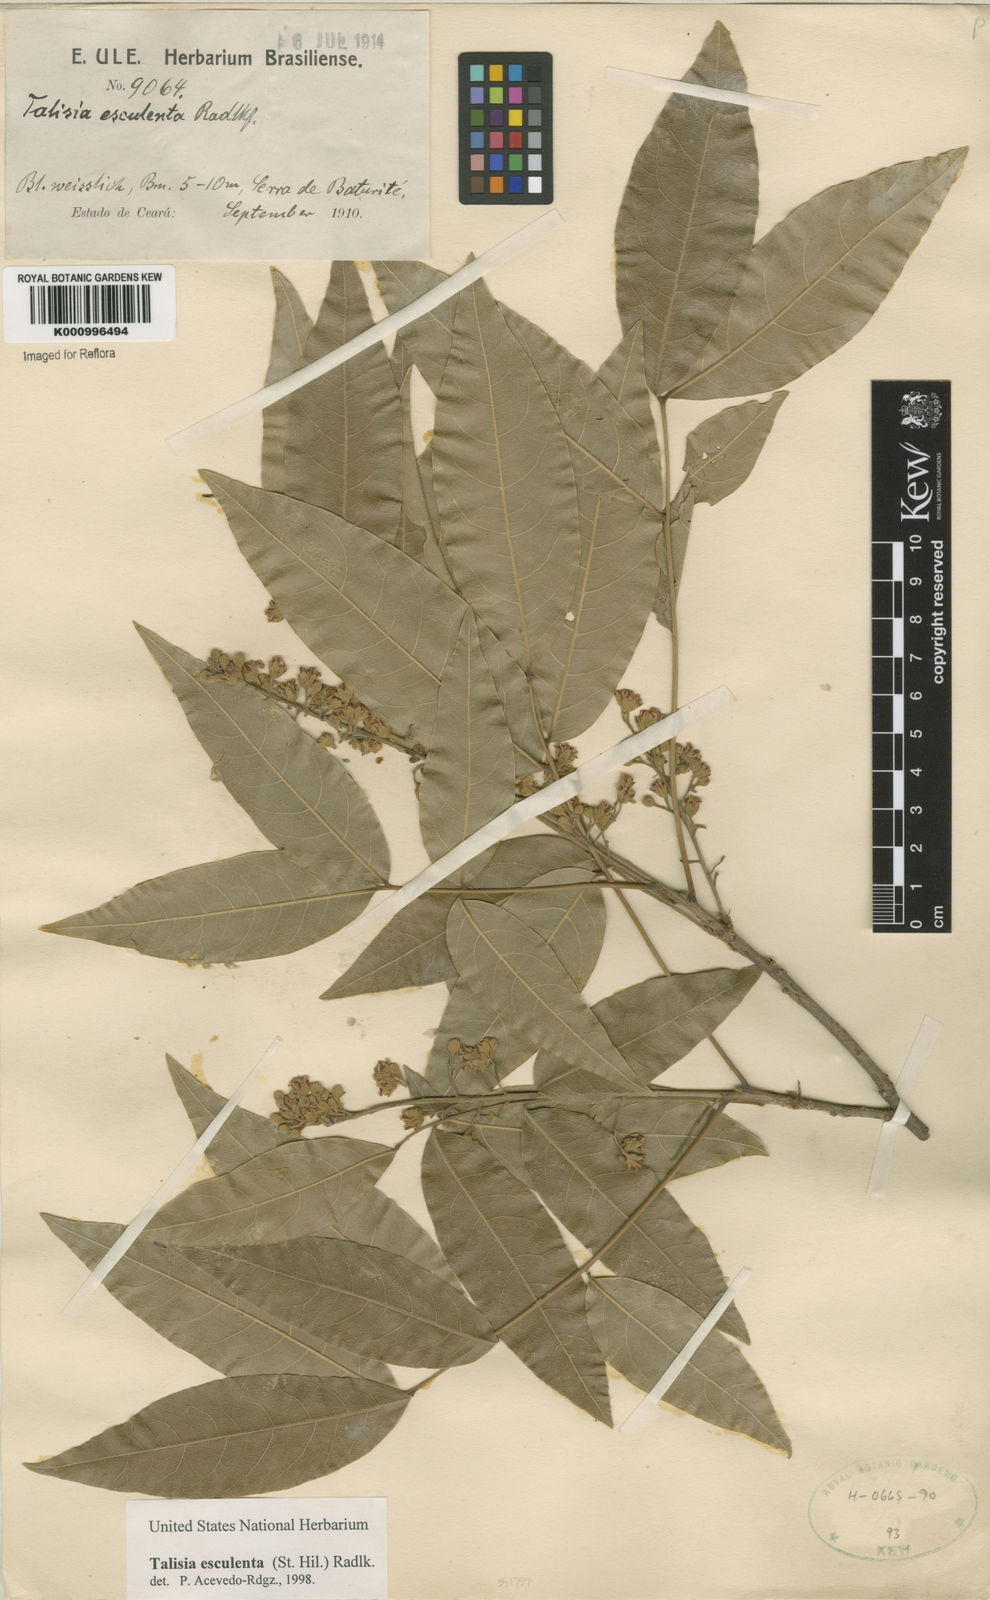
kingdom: Plantae
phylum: Tracheophyta
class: Magnoliopsida
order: Sapindales
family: Sapindaceae
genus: Talisia
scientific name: Talisia
